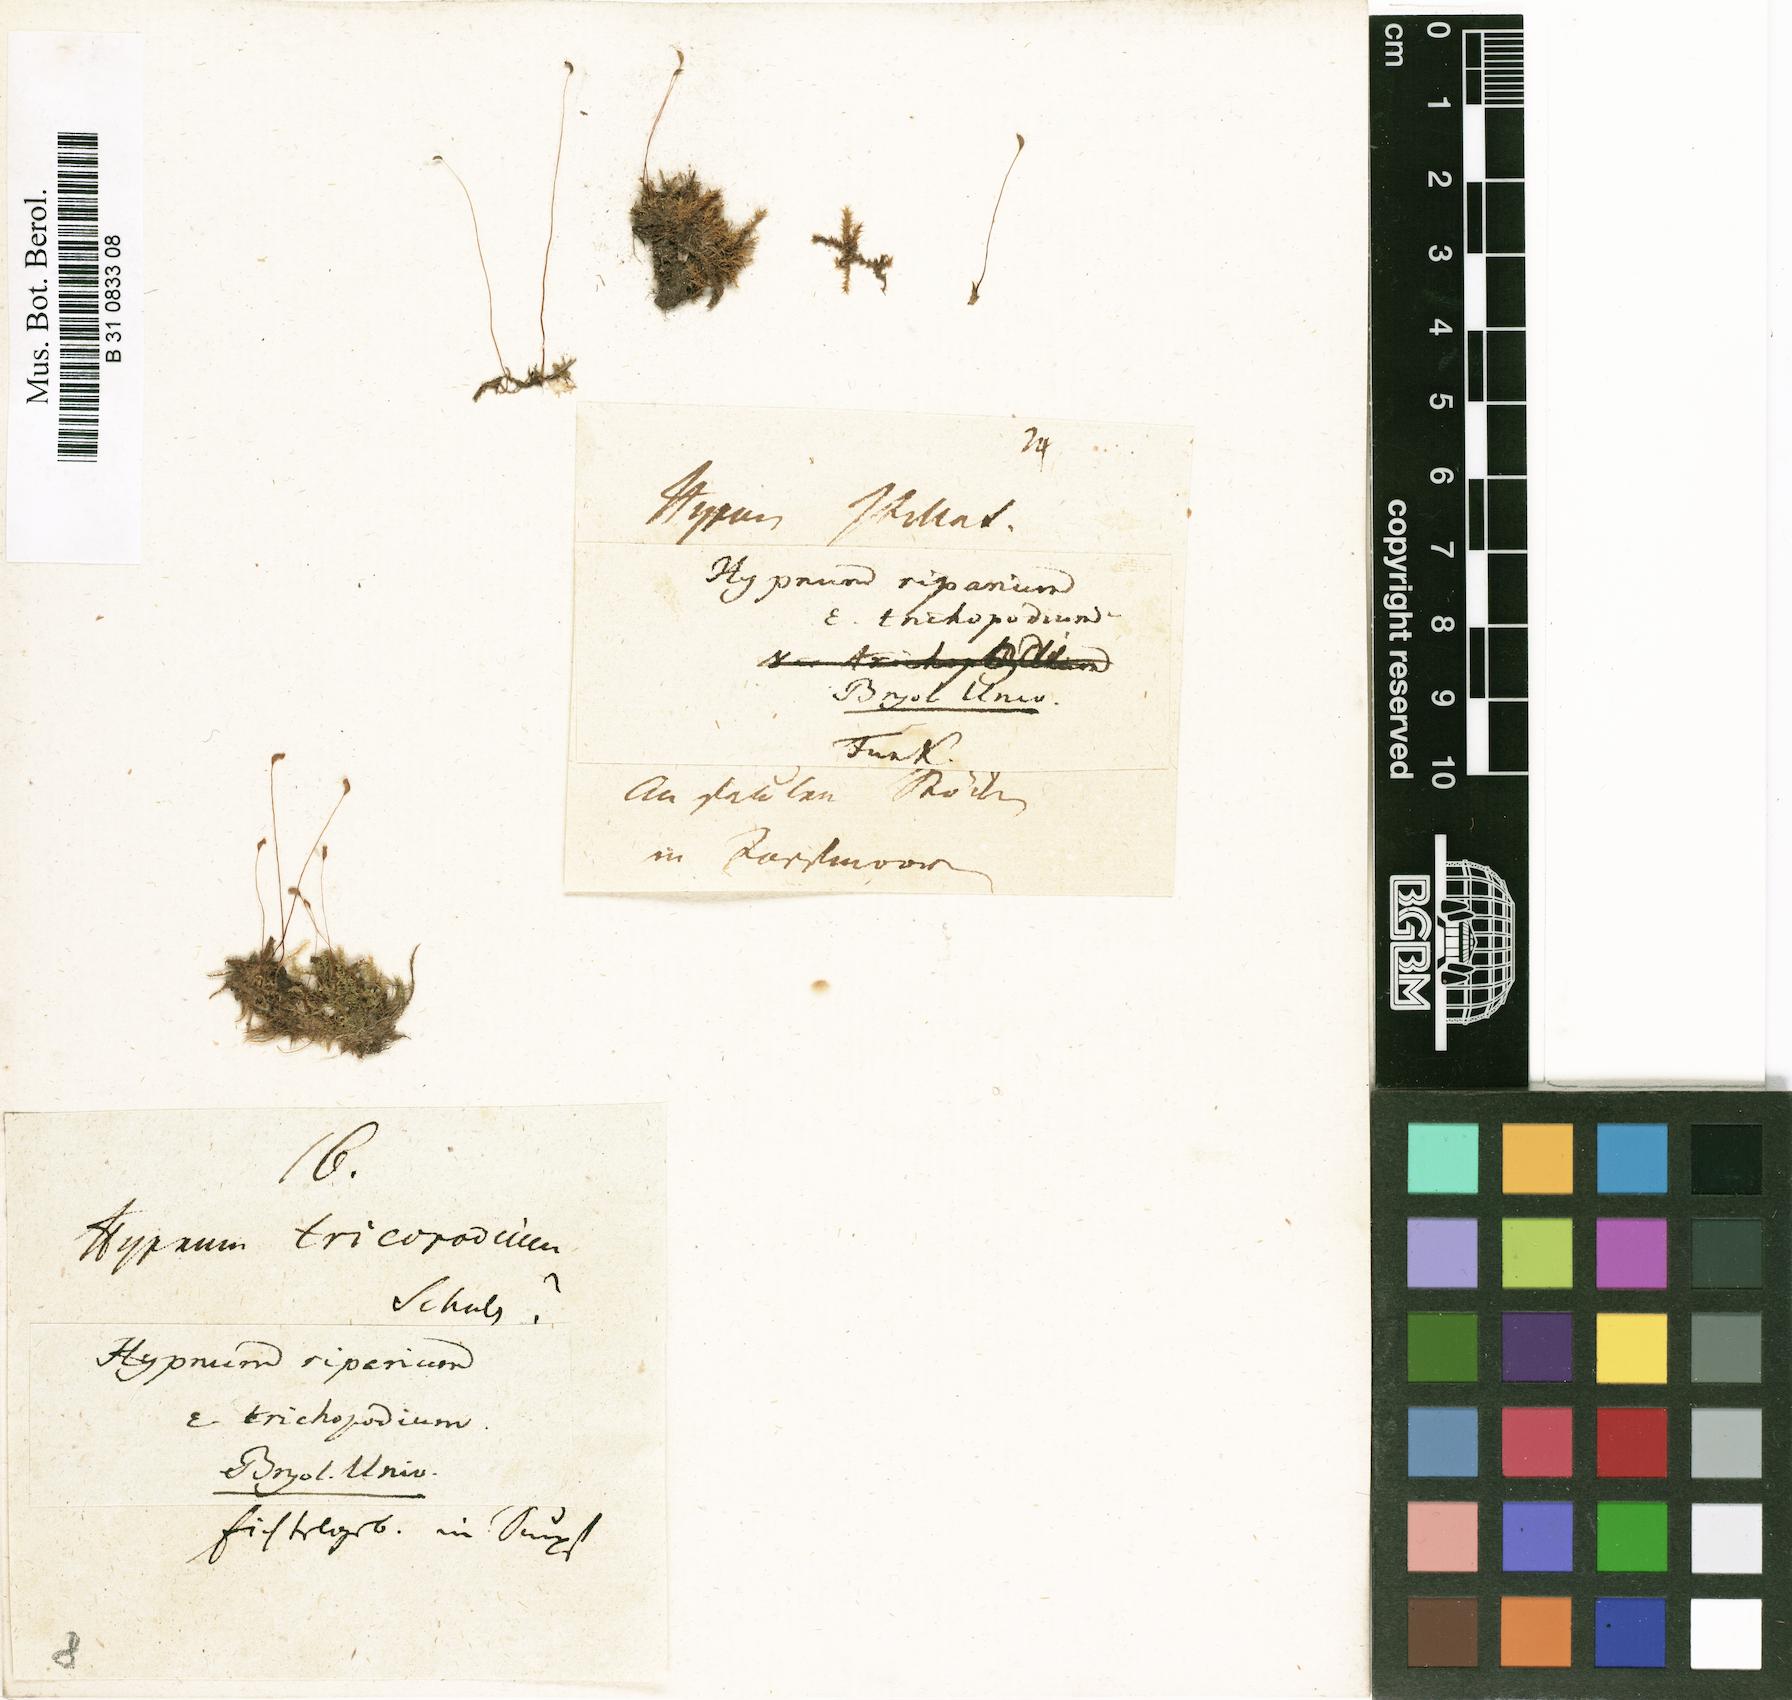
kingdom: Plantae
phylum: Bryophyta
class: Bryopsida
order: Hypnales
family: Amblystegiaceae
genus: Leptodictyum
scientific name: Leptodictyum riparium
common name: Riparian feather moss
